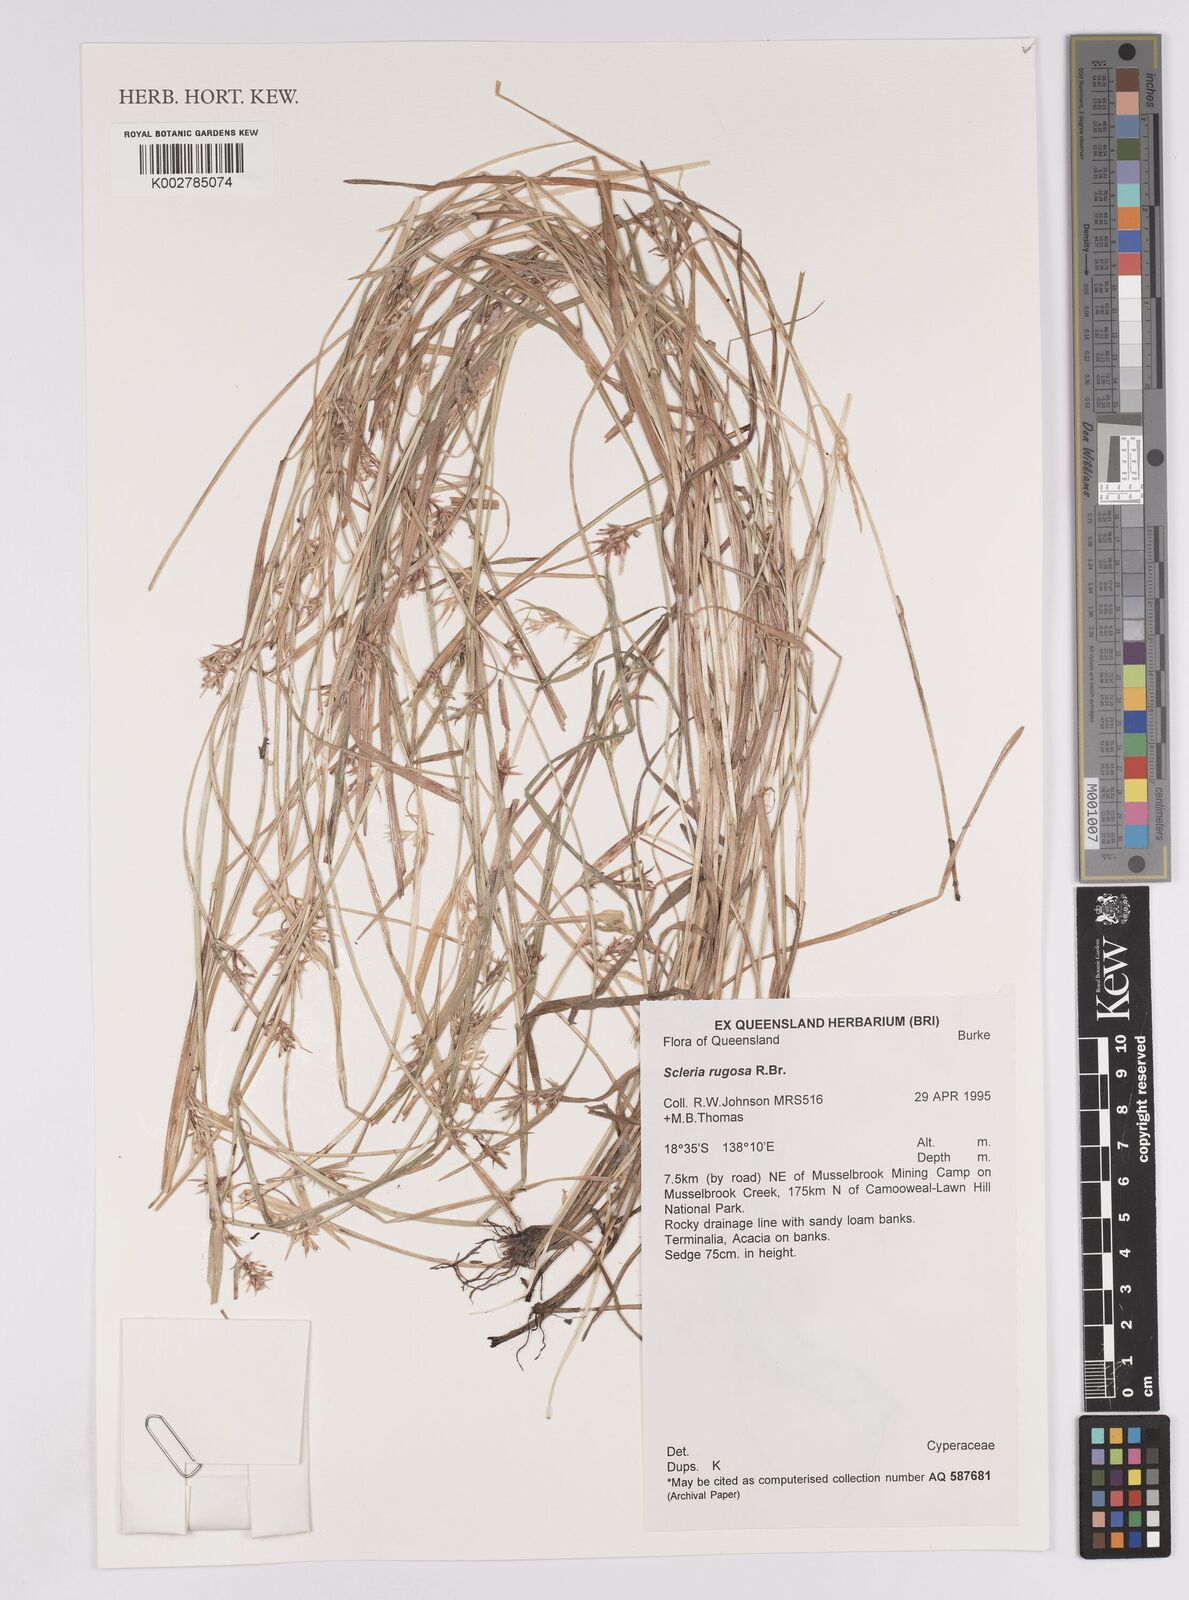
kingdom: Plantae
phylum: Tracheophyta
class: Liliopsida
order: Poales
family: Cyperaceae
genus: Scleria
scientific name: Scleria rugosa
